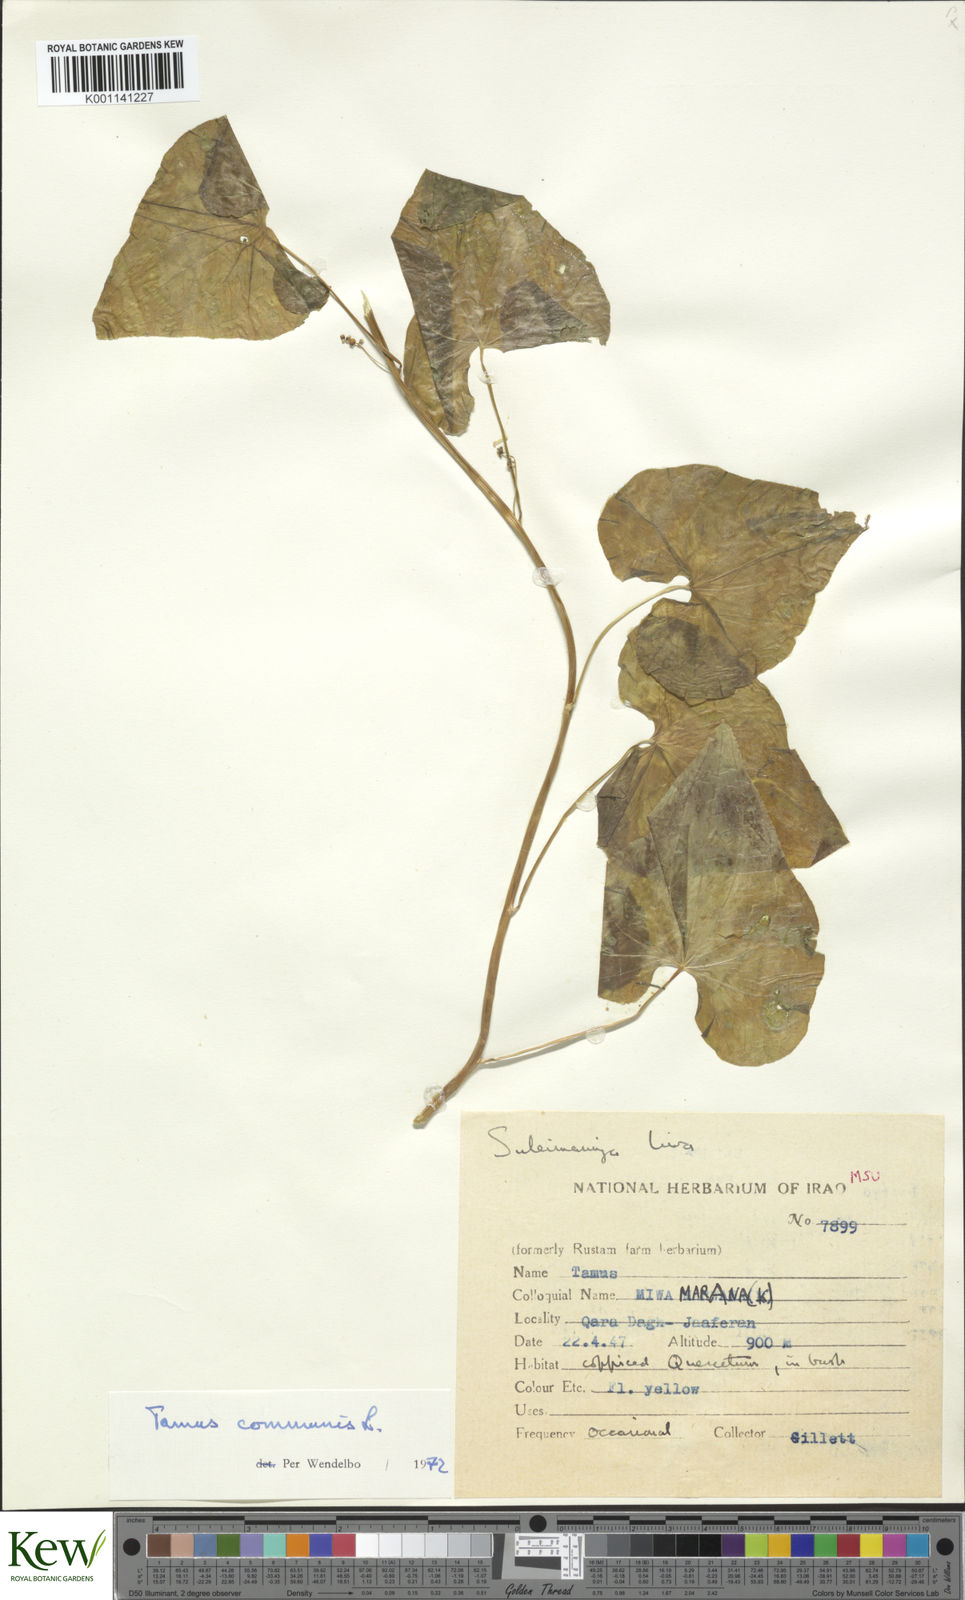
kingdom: Plantae
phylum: Tracheophyta
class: Liliopsida
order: Dioscoreales
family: Dioscoreaceae
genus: Dioscorea
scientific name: Dioscorea communis
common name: Black-bindweed
